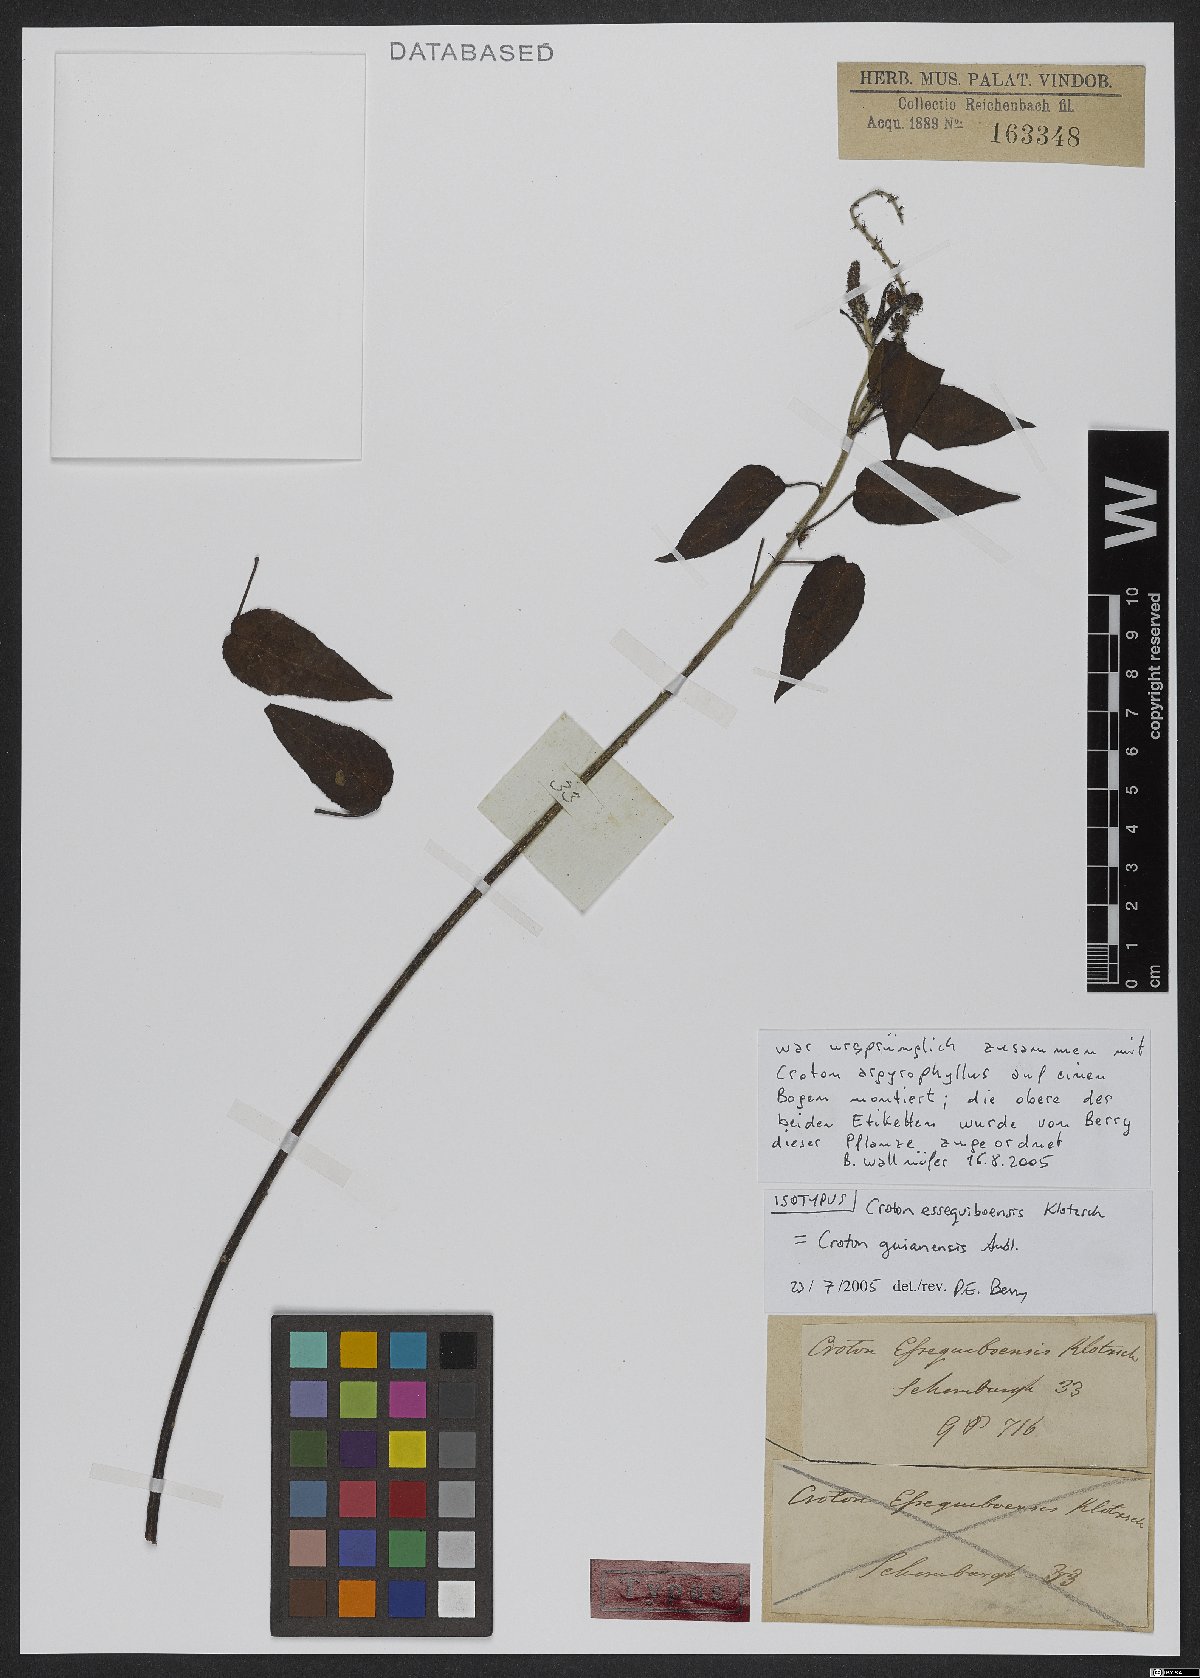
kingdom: Plantae
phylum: Tracheophyta
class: Magnoliopsida
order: Malpighiales
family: Euphorbiaceae
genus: Croton
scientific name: Croton guianensis
